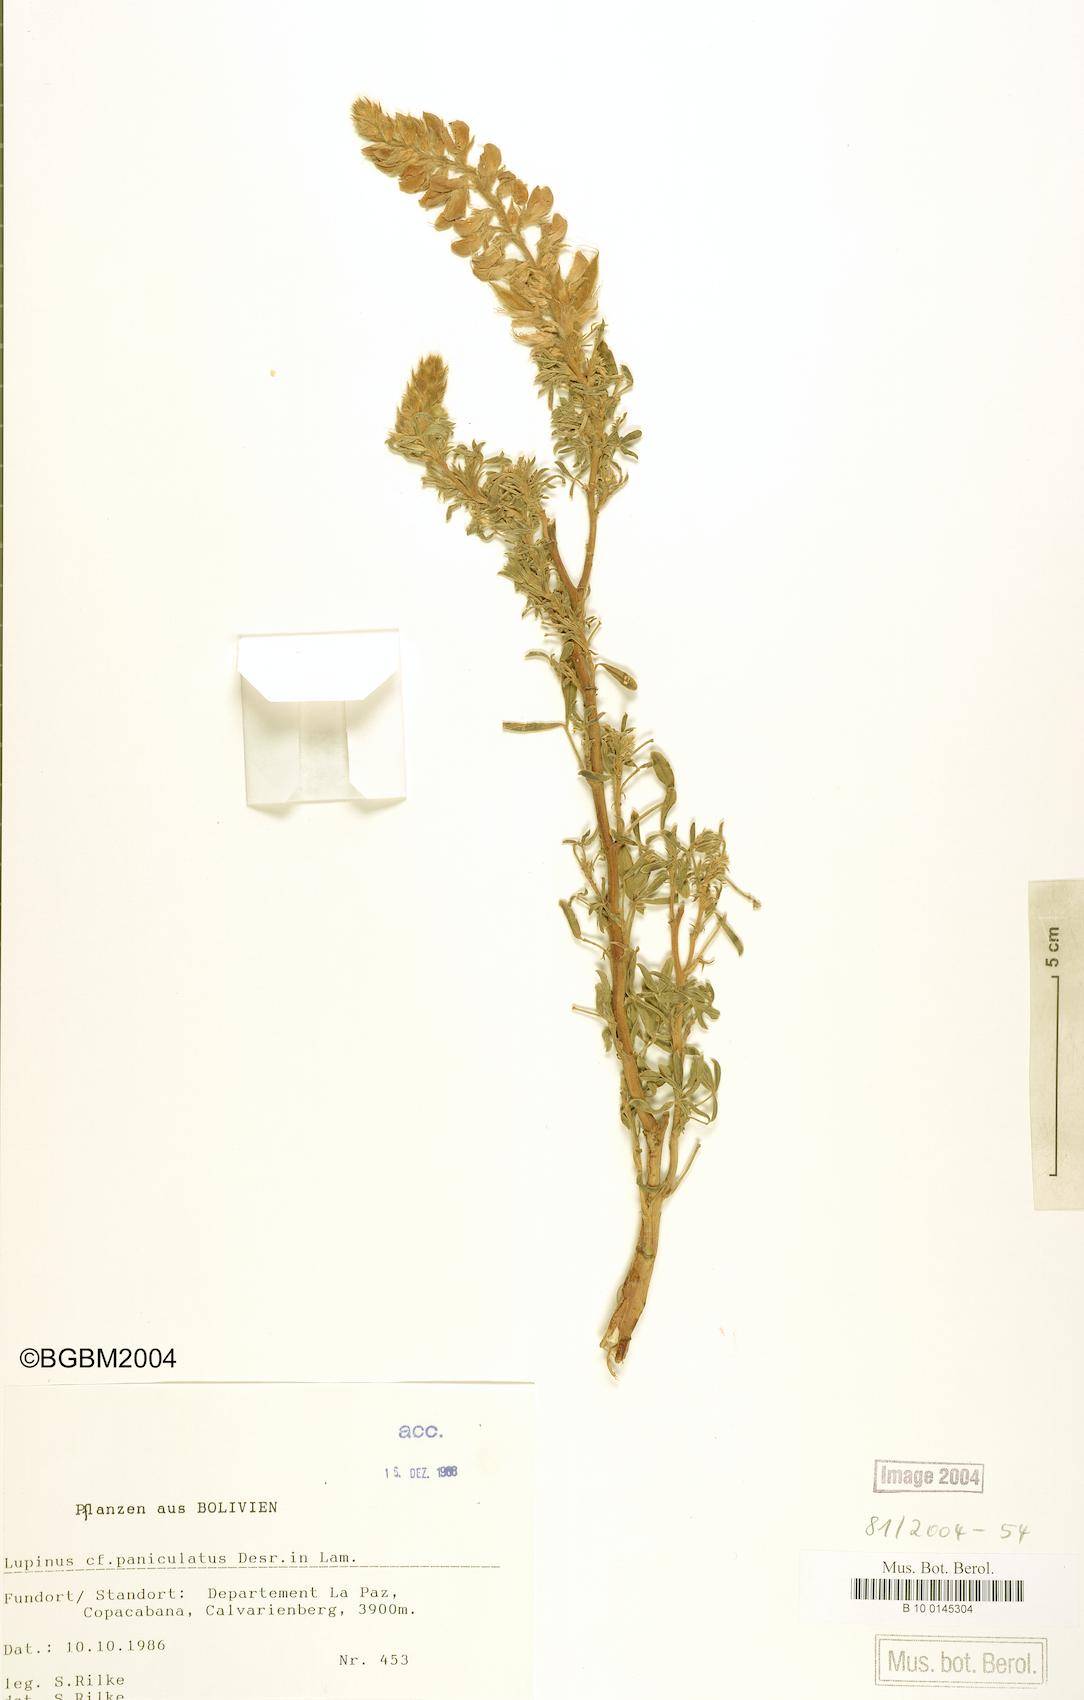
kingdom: Plantae
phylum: Tracheophyta
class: Magnoliopsida
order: Fabales
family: Fabaceae
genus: Lupinus
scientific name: Lupinus paniculatus
